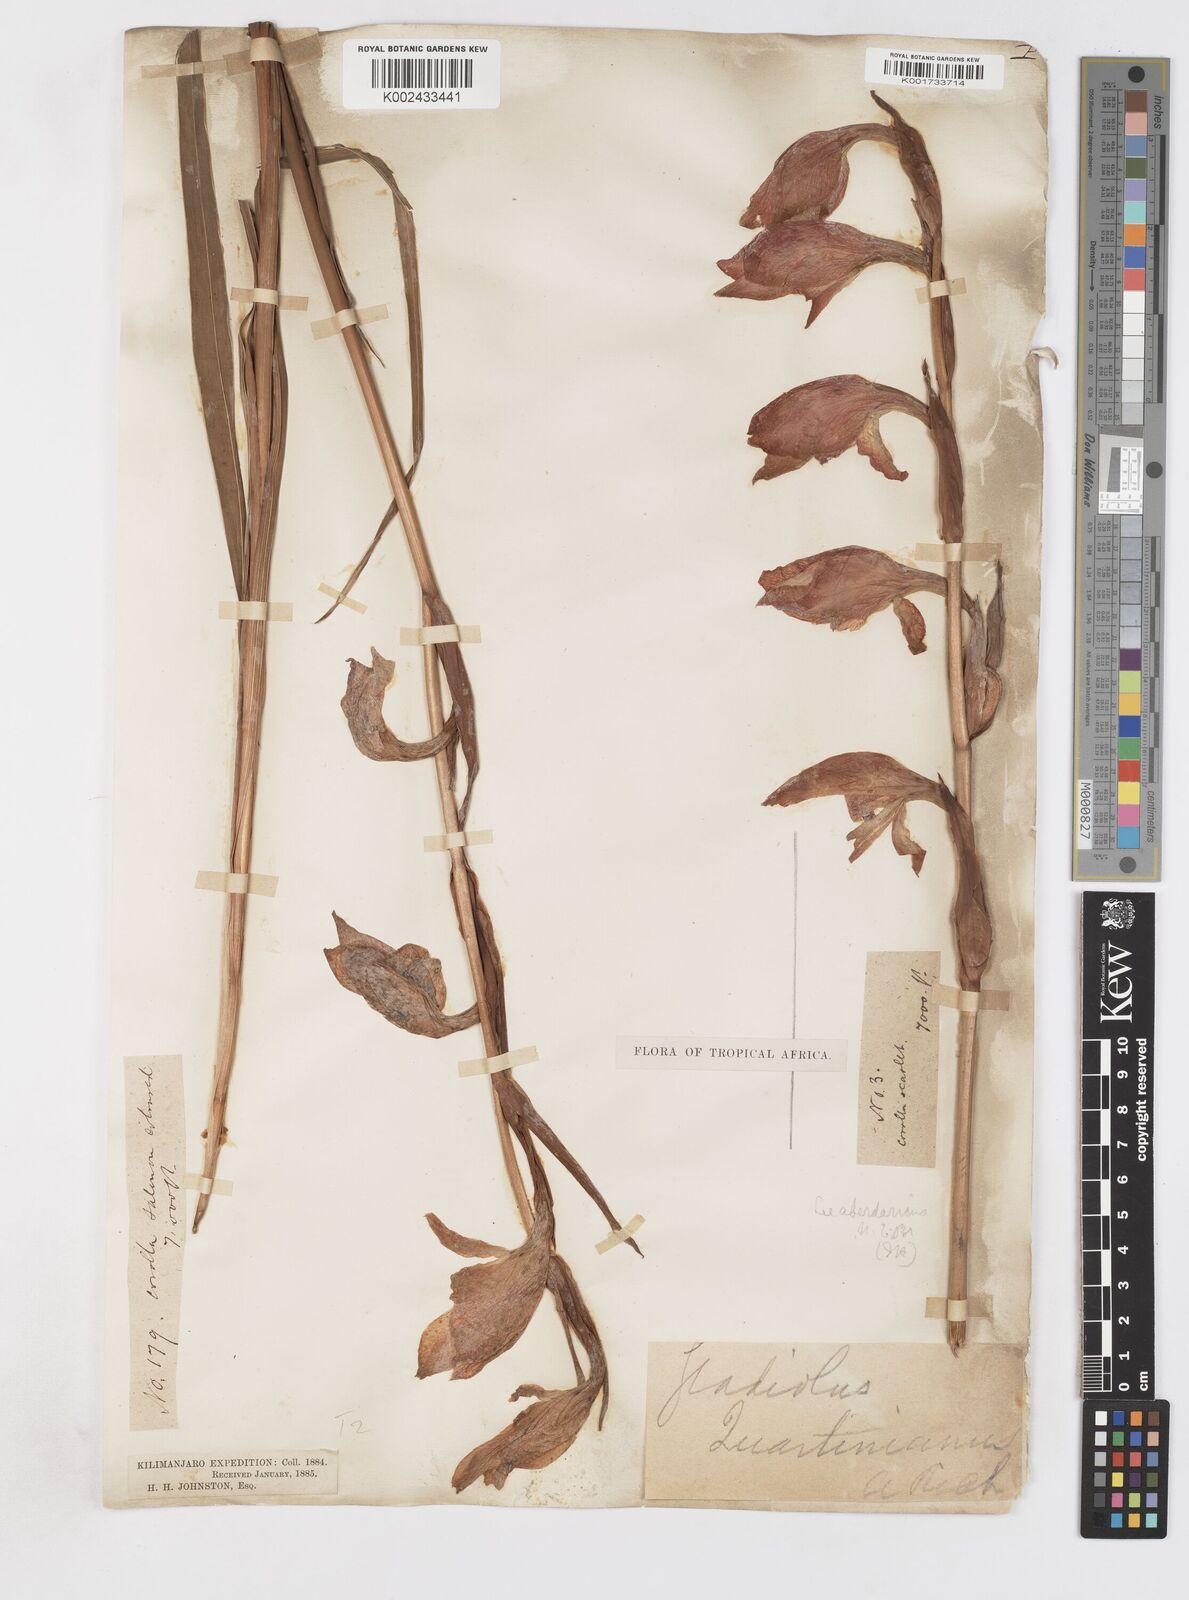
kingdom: Plantae
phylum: Tracheophyta
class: Liliopsida
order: Asparagales
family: Iridaceae
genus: Gladiolus
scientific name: Gladiolus dalenii
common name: Cornflag
